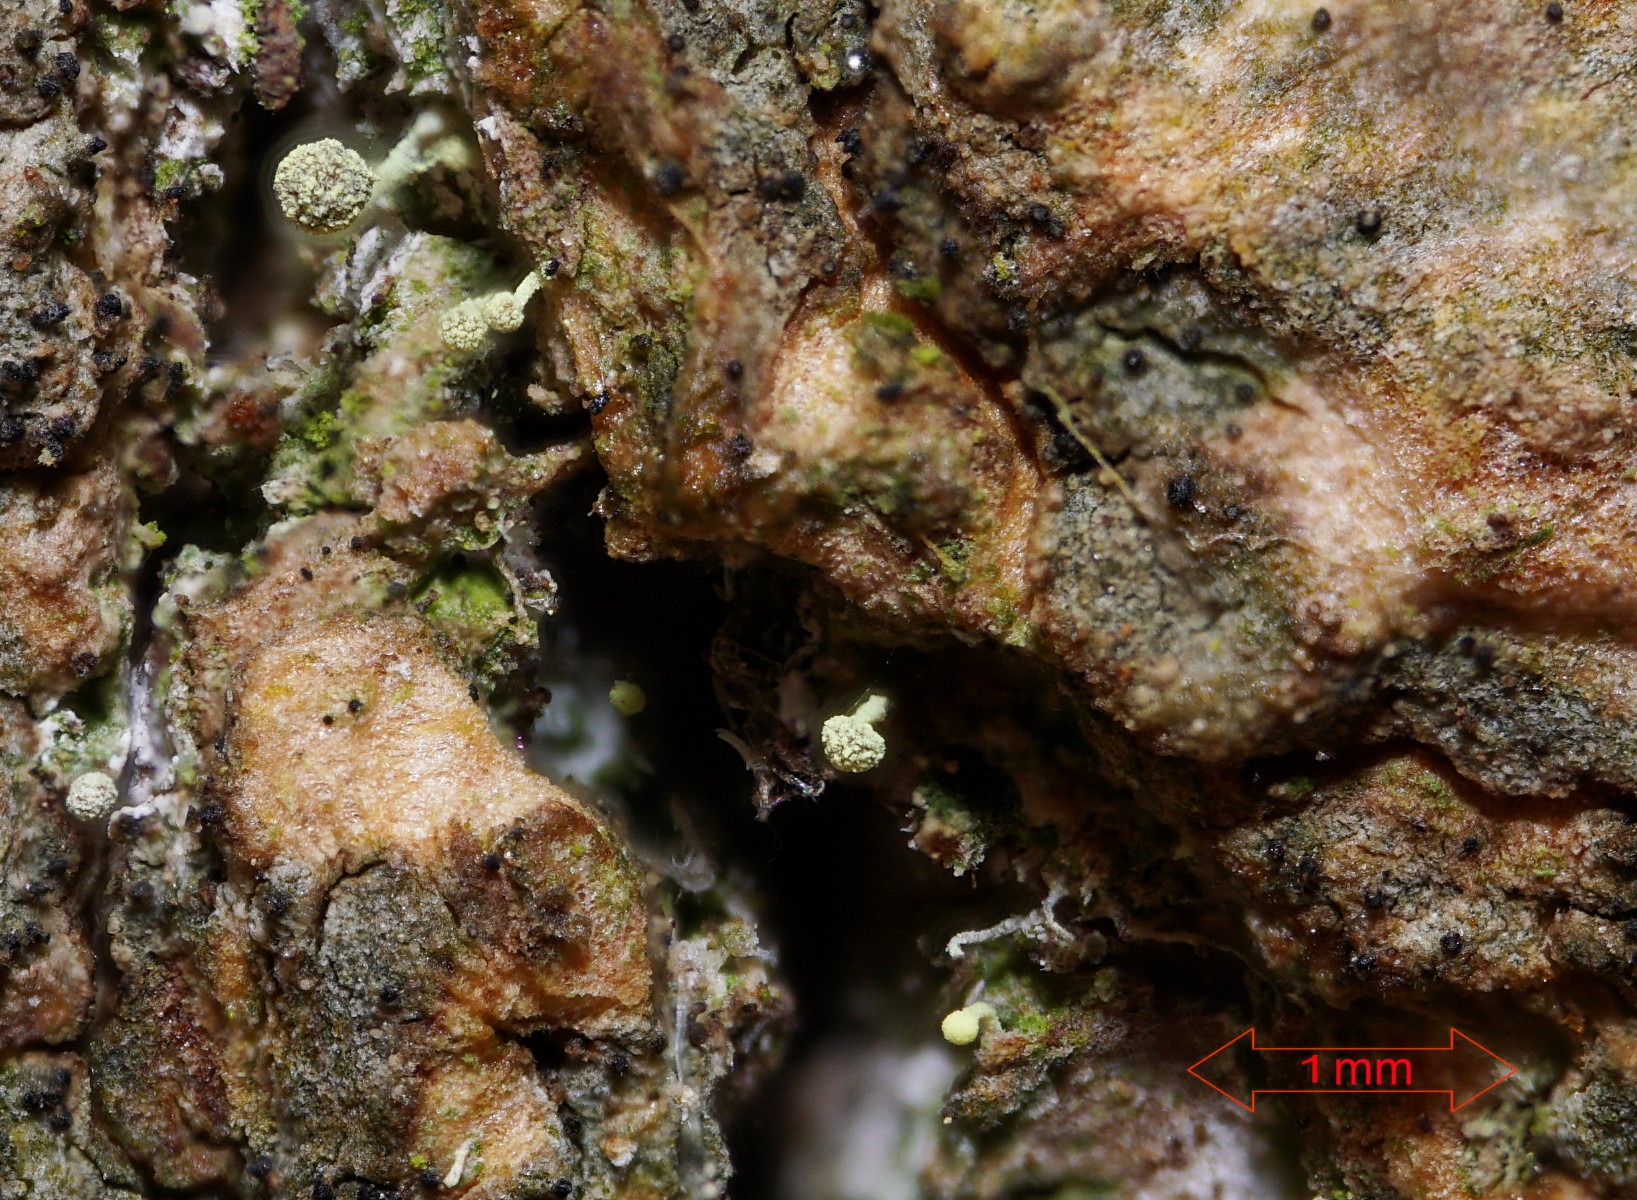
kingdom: Fungi
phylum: Ascomycota
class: Coniocybomycetes
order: Coniocybales
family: Coniocybaceae
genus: Chaenotheca
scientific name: Chaenotheca brachypoda
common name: gulgrøn knappenålslav
